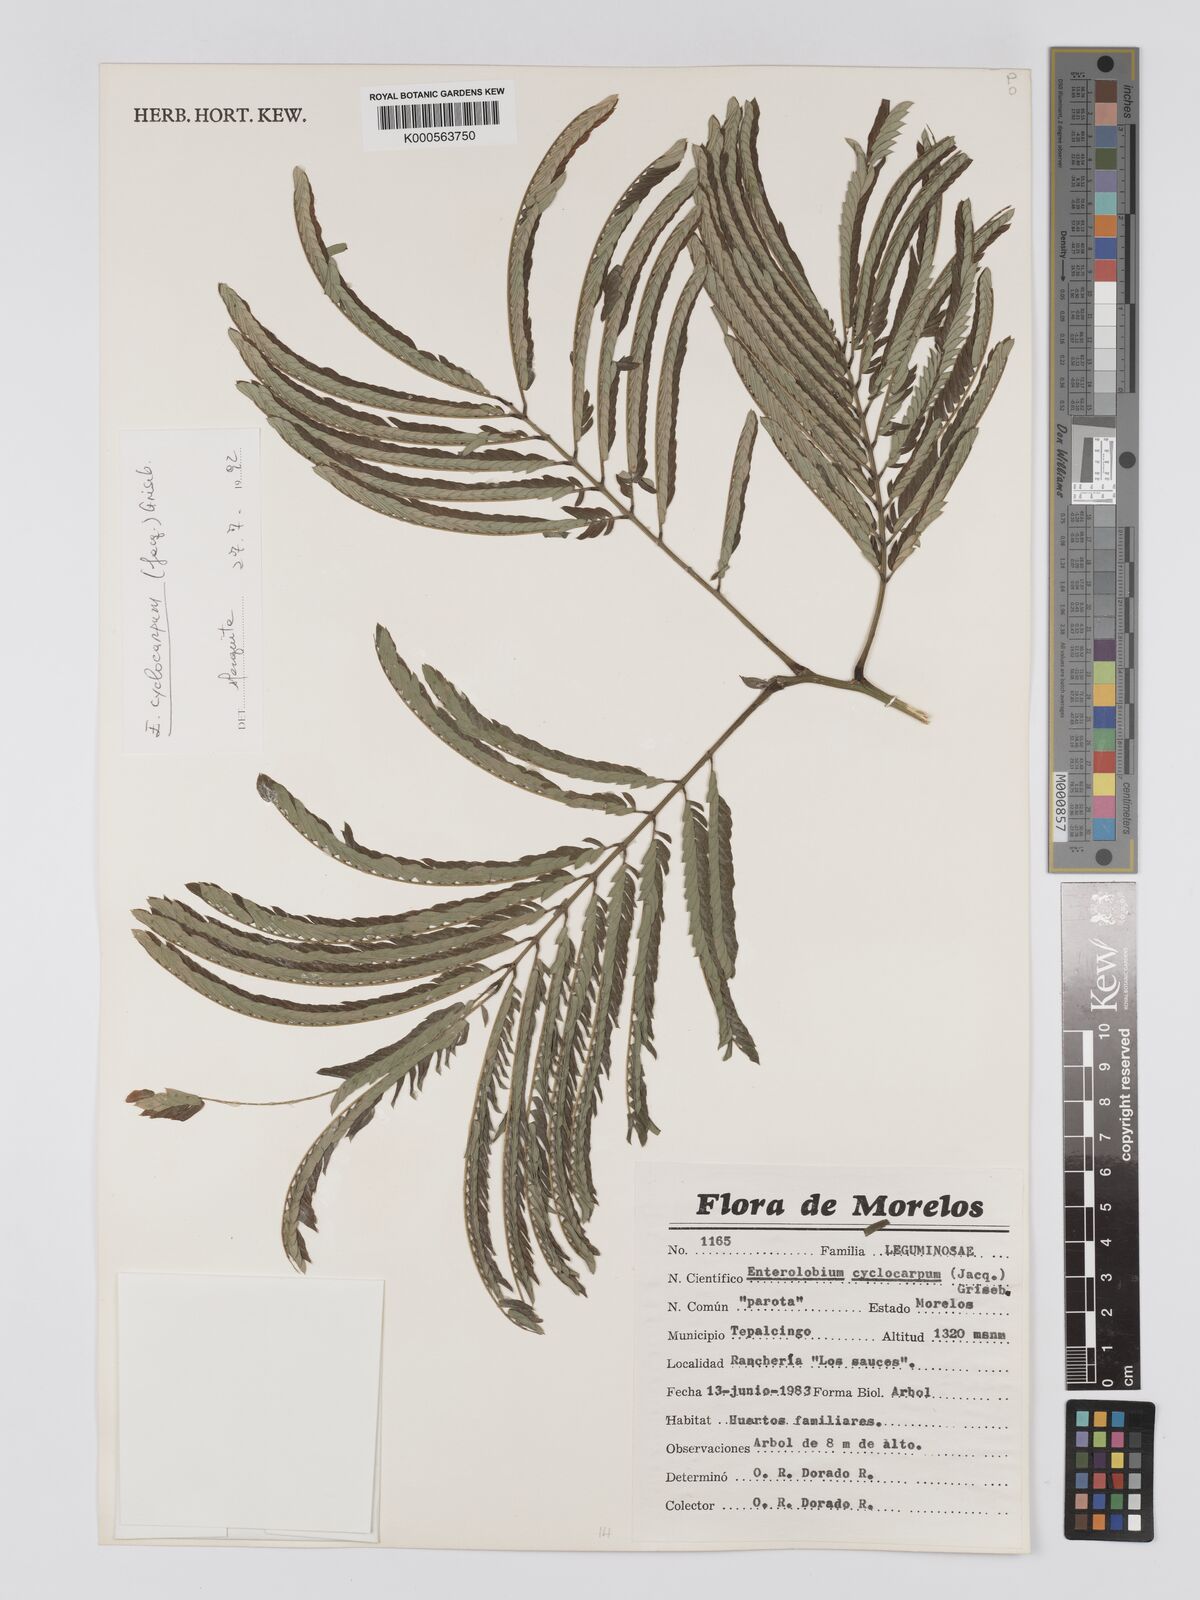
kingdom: Plantae
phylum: Tracheophyta
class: Magnoliopsida
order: Fabales
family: Fabaceae
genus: Enterolobium
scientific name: Enterolobium cyclocarpum
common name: Ear tree
